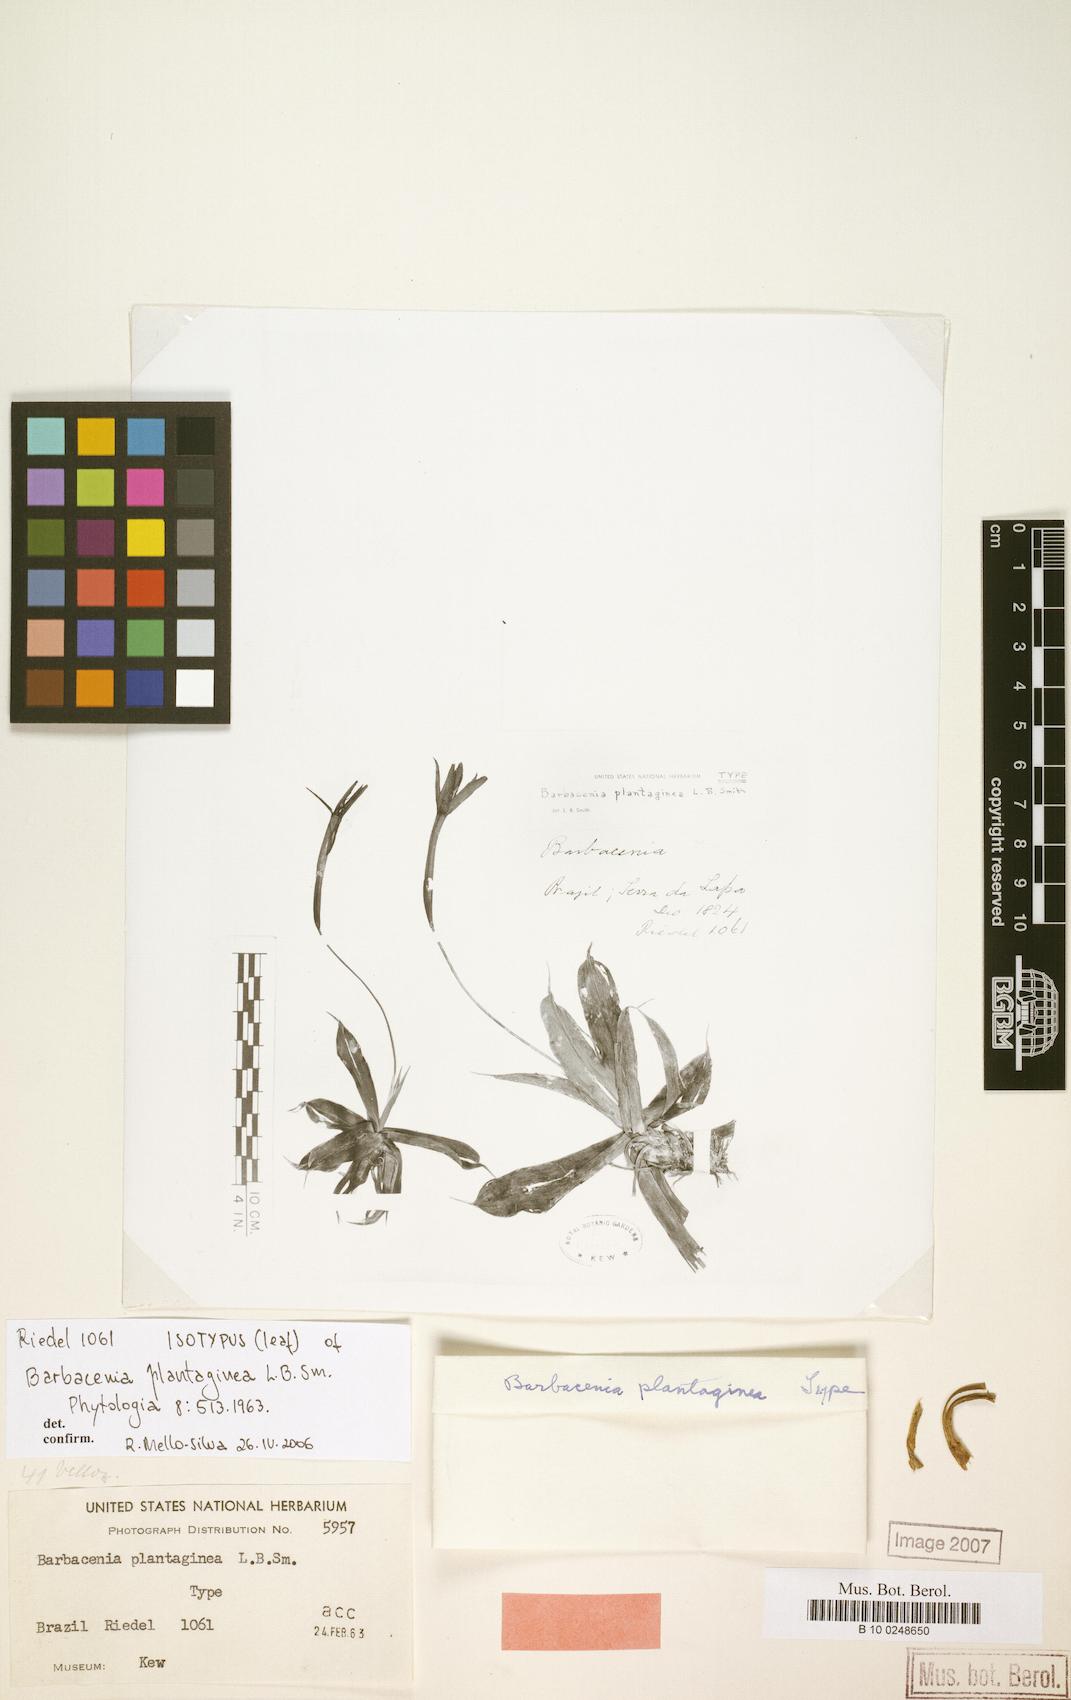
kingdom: Plantae
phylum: Tracheophyta
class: Liliopsida
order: Pandanales
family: Velloziaceae
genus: Barbacenia
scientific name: Barbacenia plantaginea
